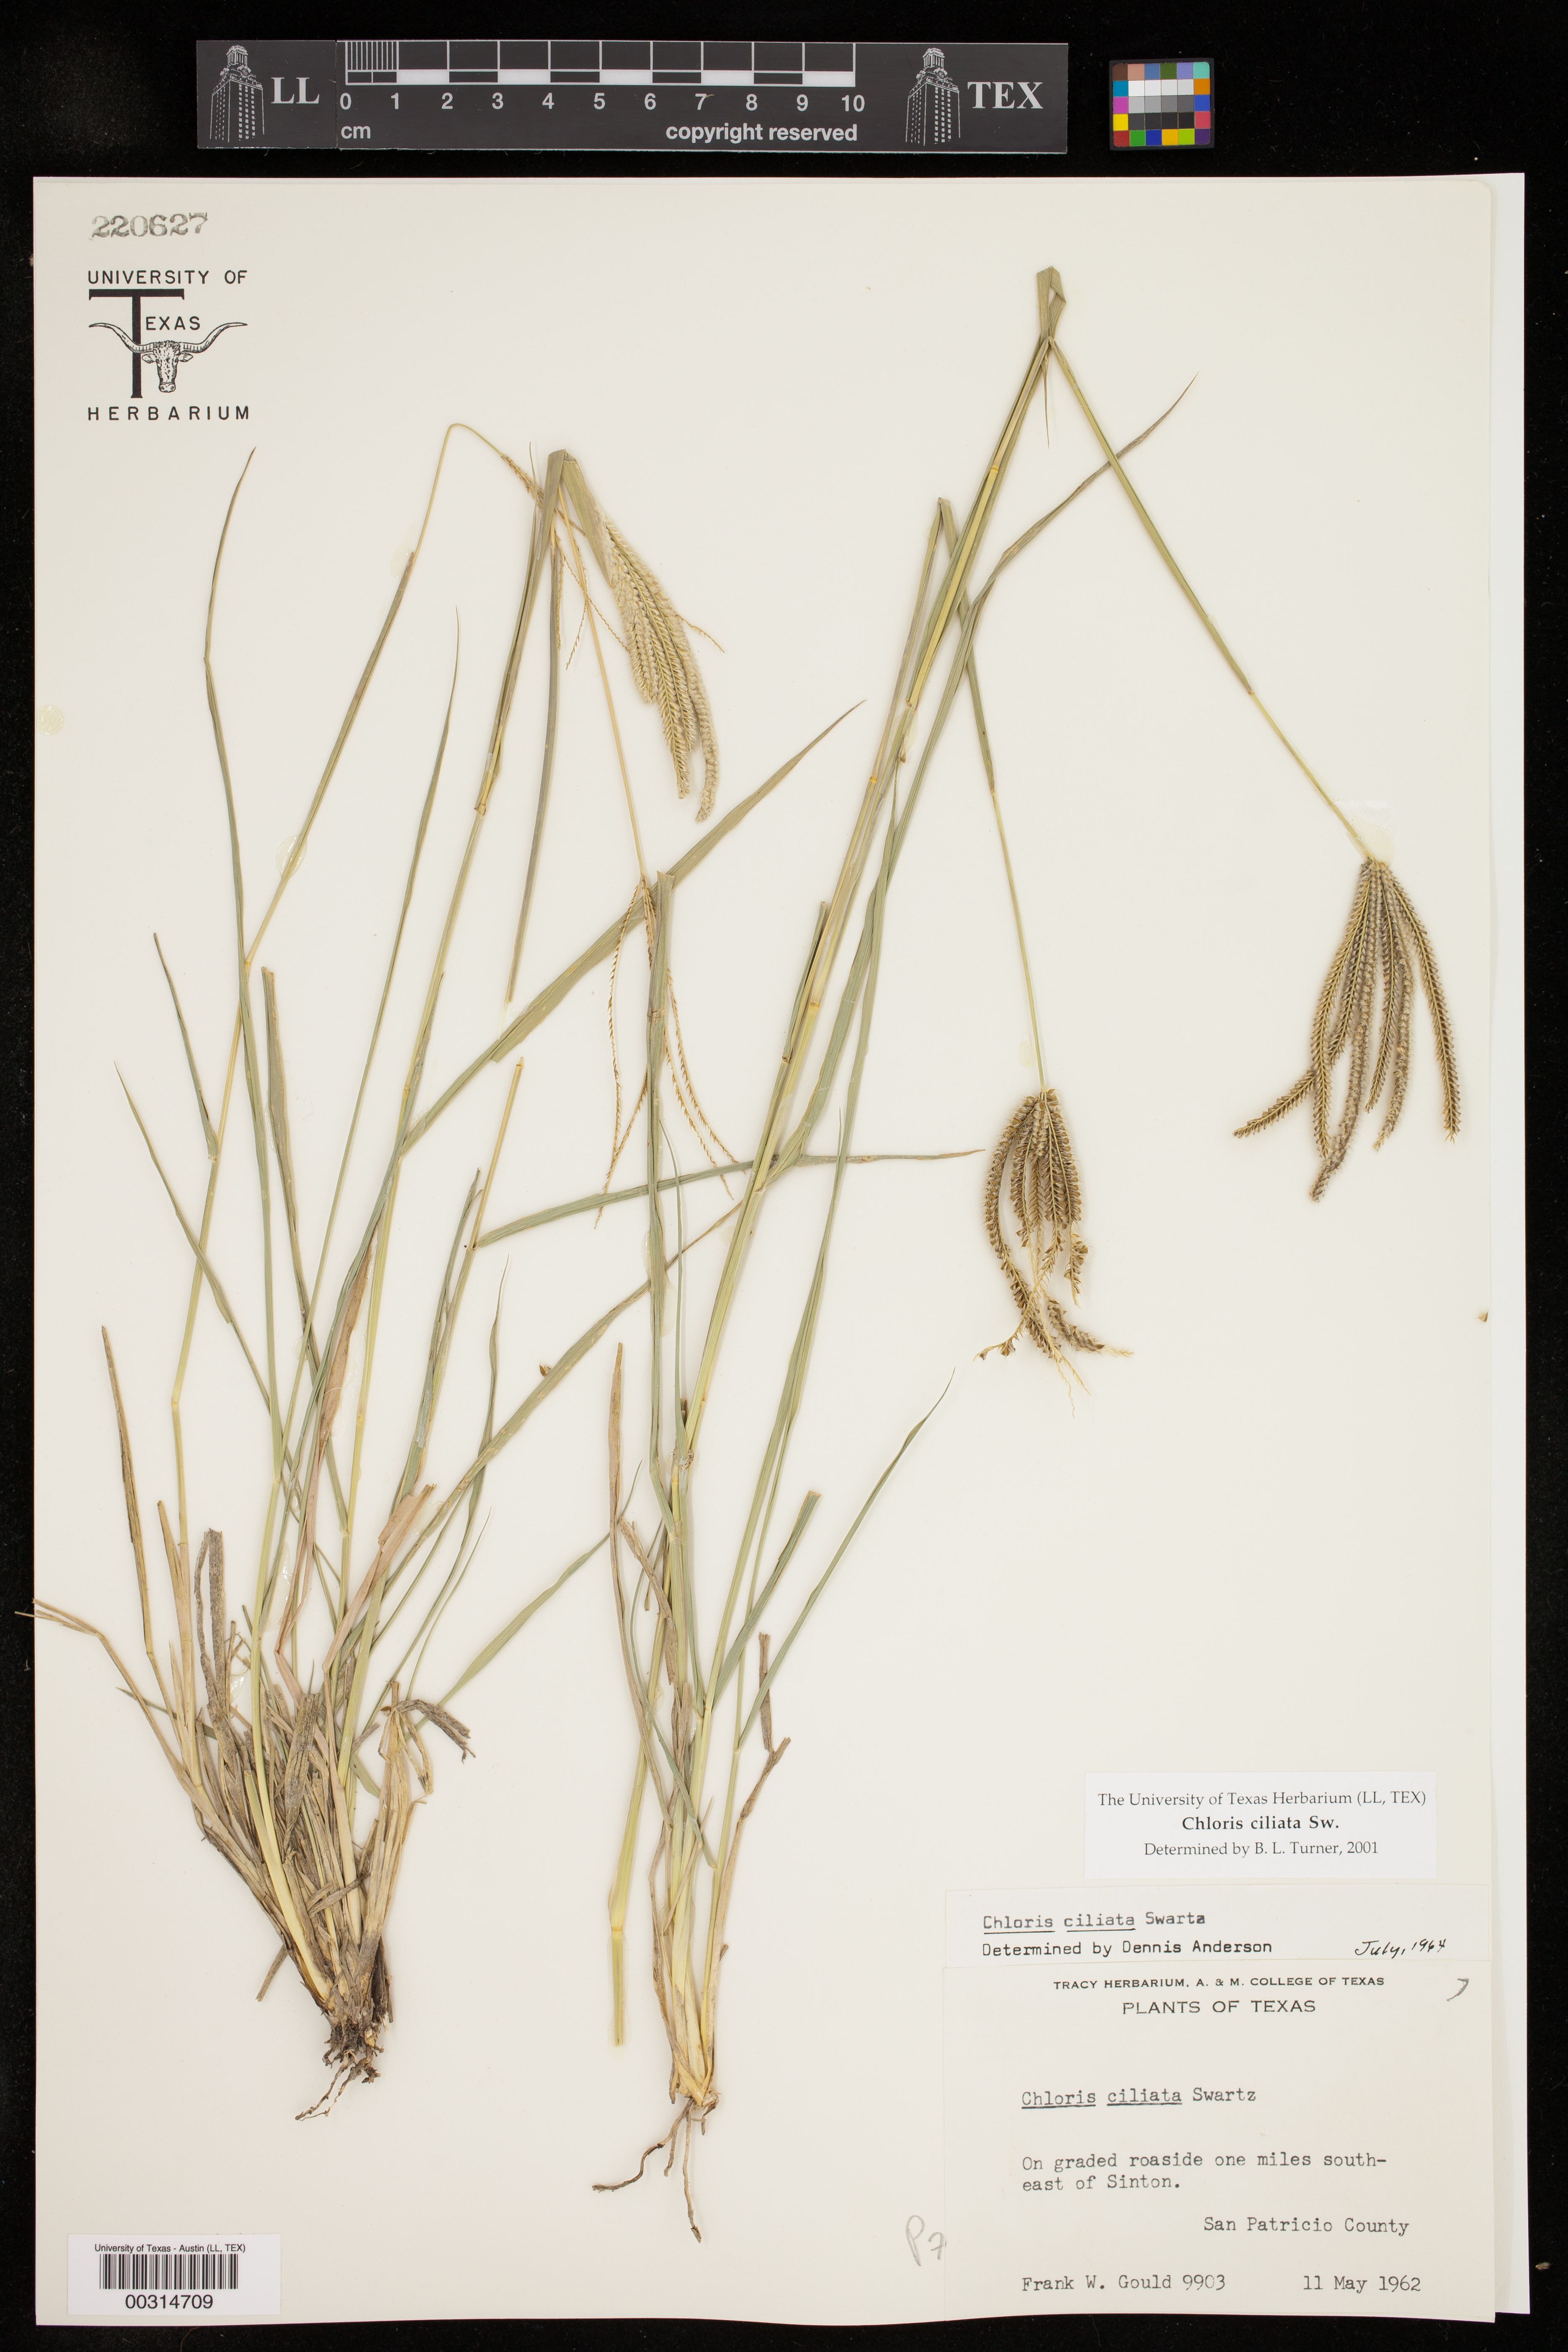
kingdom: Plantae
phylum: Tracheophyta
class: Liliopsida
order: Poales
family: Poaceae
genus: Stapfochloa
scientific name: Stapfochloa ciliata
